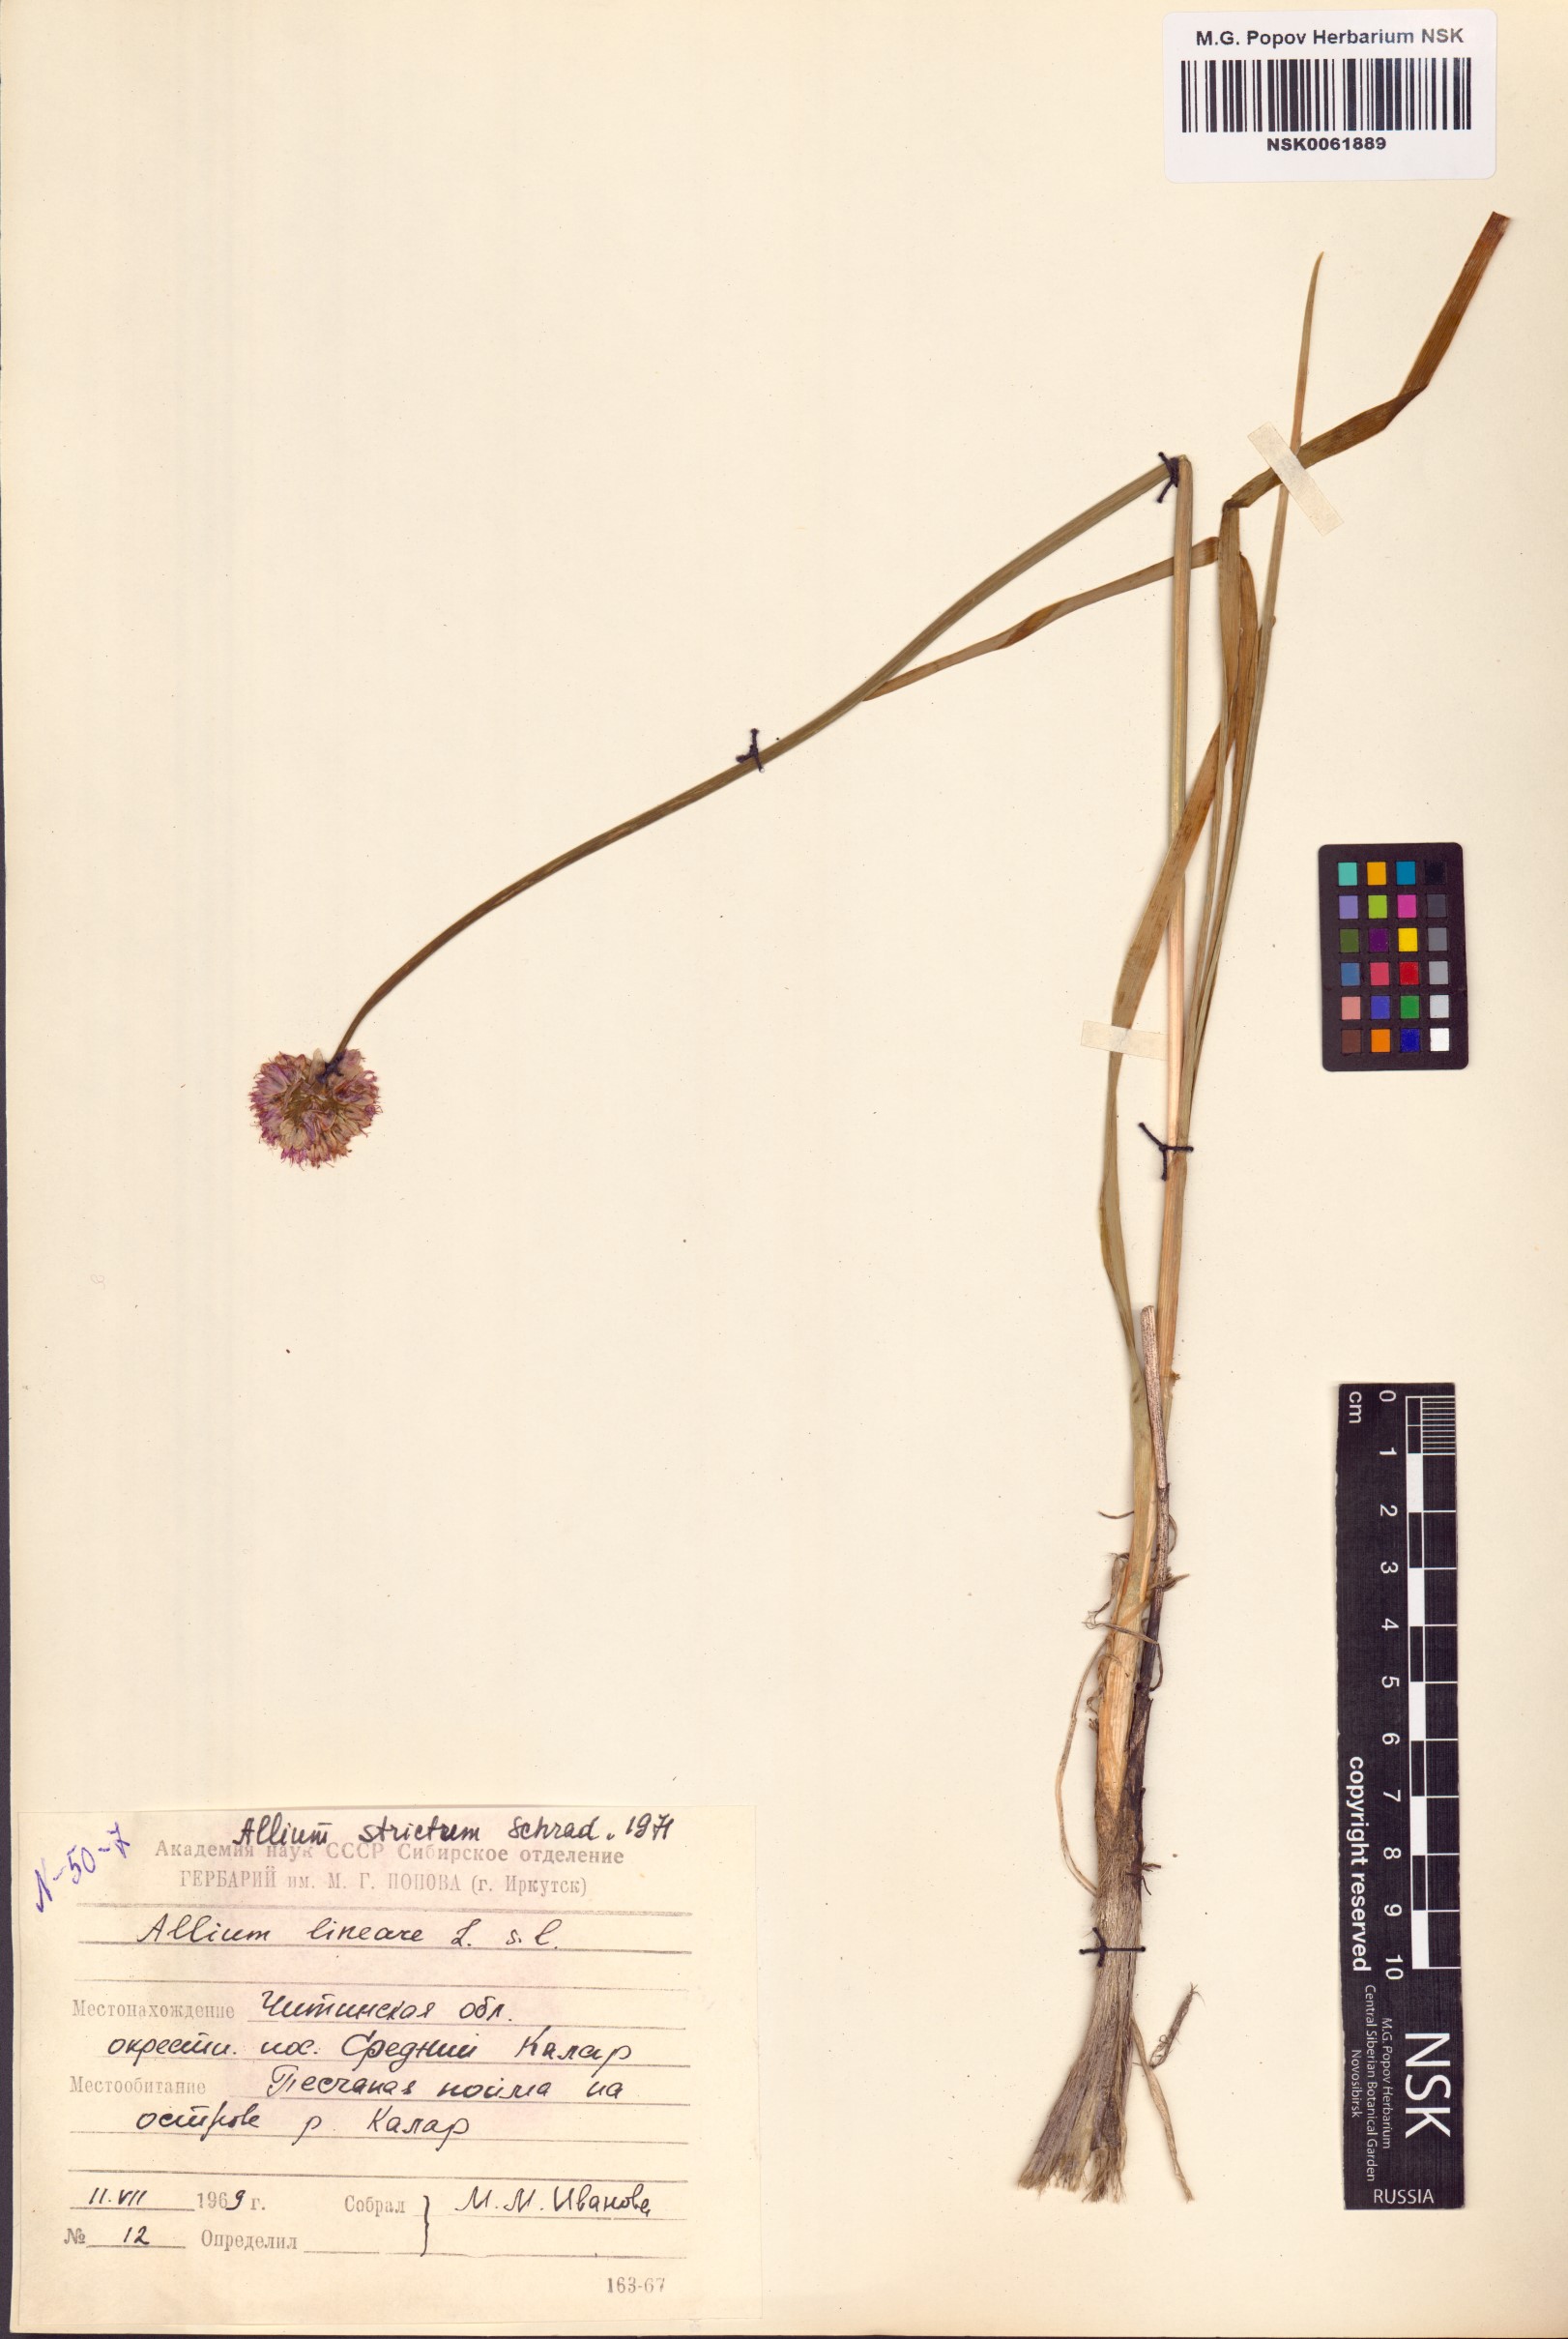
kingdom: Plantae
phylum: Tracheophyta
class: Liliopsida
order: Asparagales
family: Amaryllidaceae
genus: Allium
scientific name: Allium strictum
